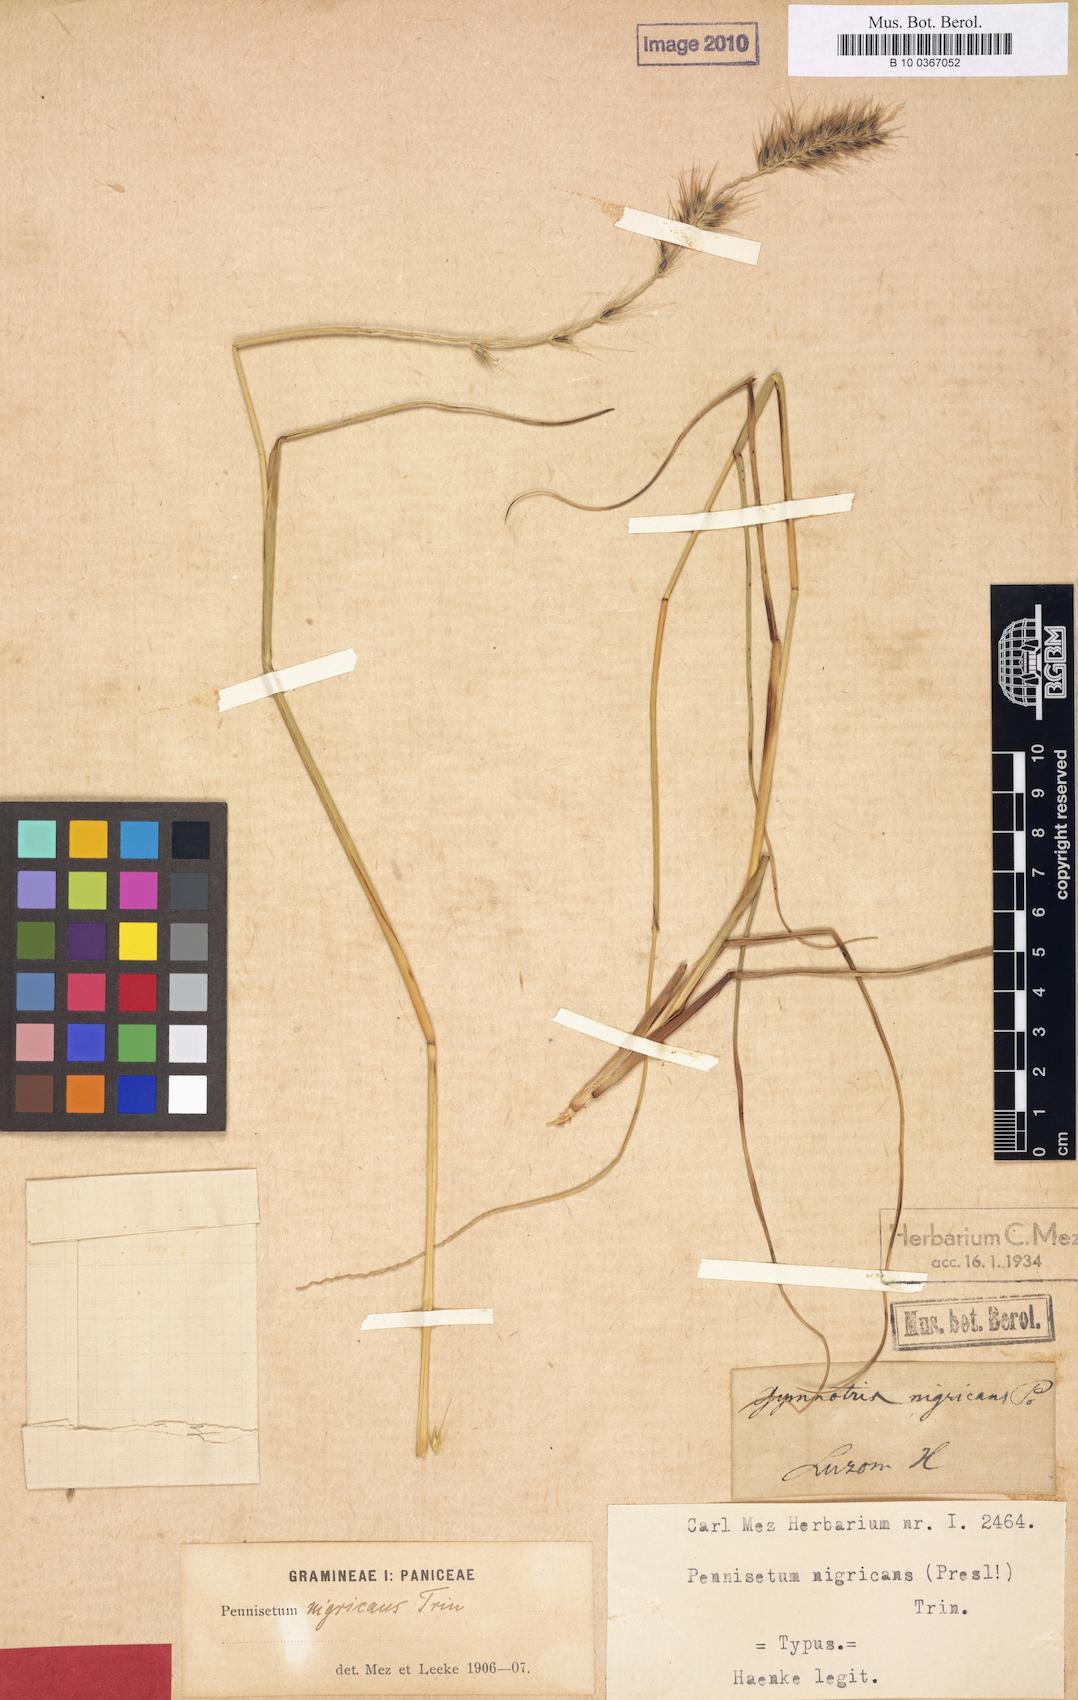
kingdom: Plantae
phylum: Tracheophyta
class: Liliopsida
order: Poales
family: Poaceae
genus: Cenchrus
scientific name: Cenchrus alopecuroides
